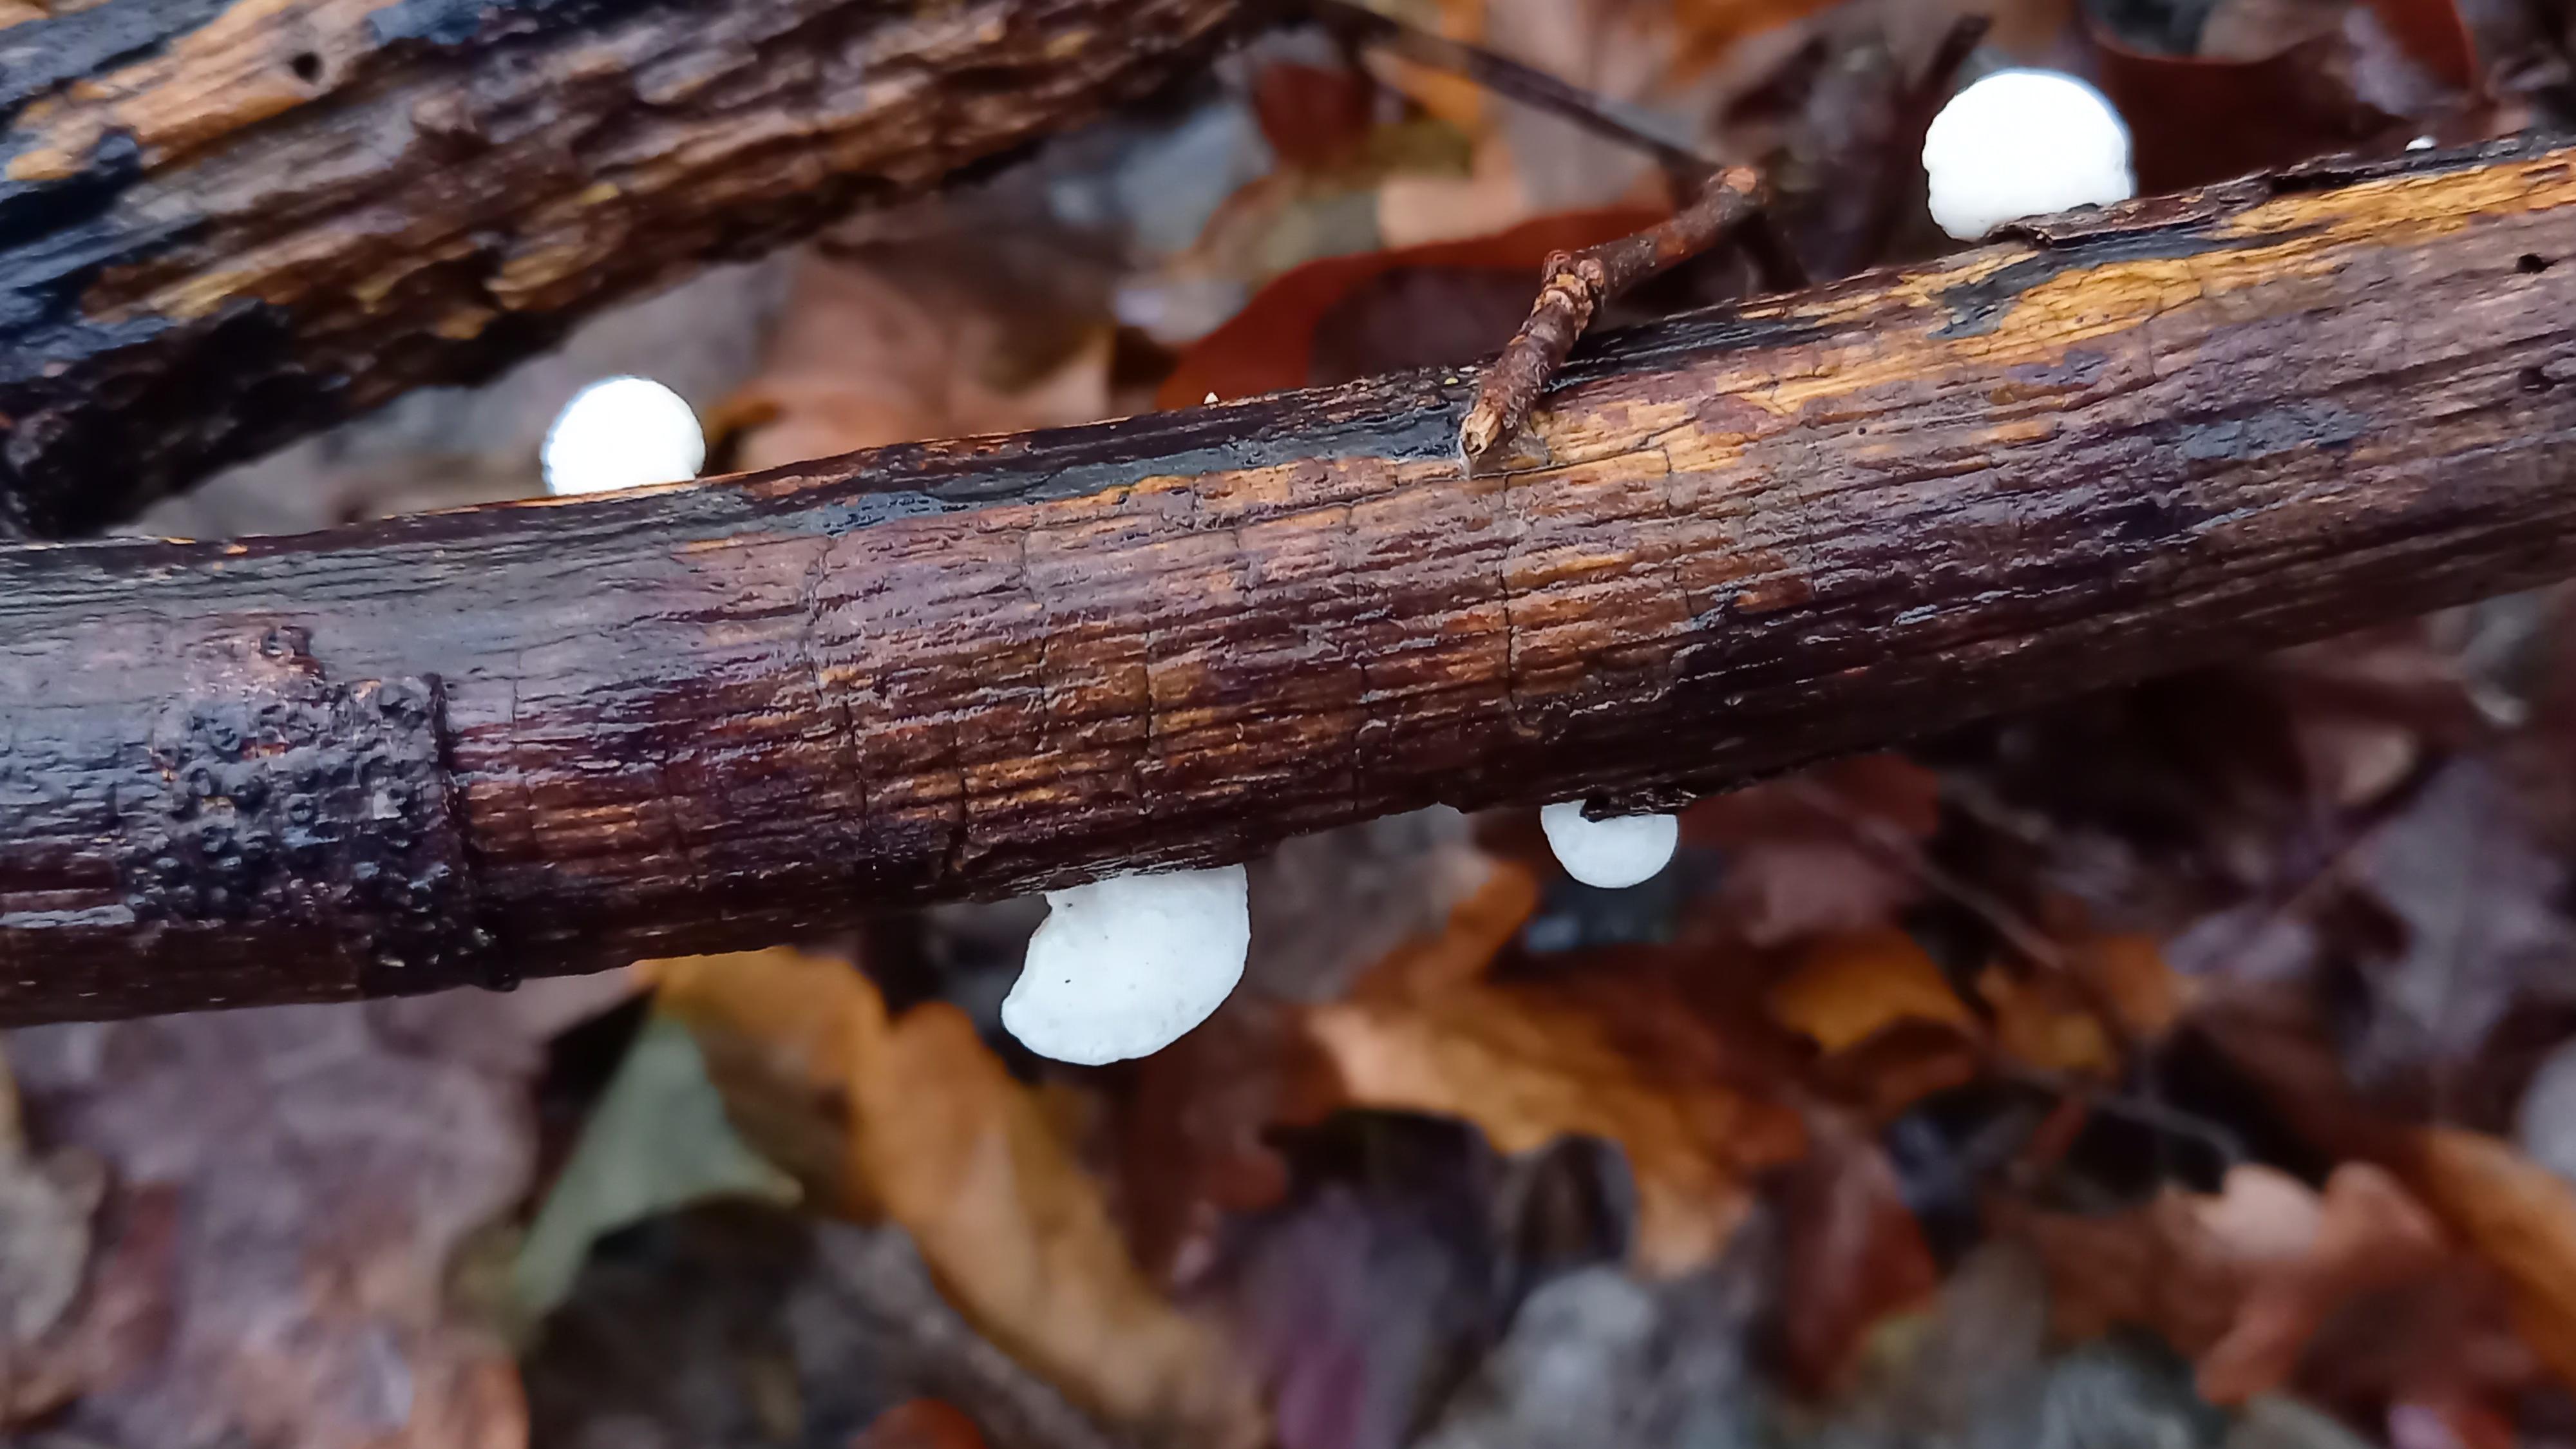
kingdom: Fungi
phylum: Basidiomycota
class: Agaricomycetes
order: Agaricales
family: Crepidotaceae
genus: Crepidotus
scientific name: Crepidotus cesatii
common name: almindelig muslingesvamp
